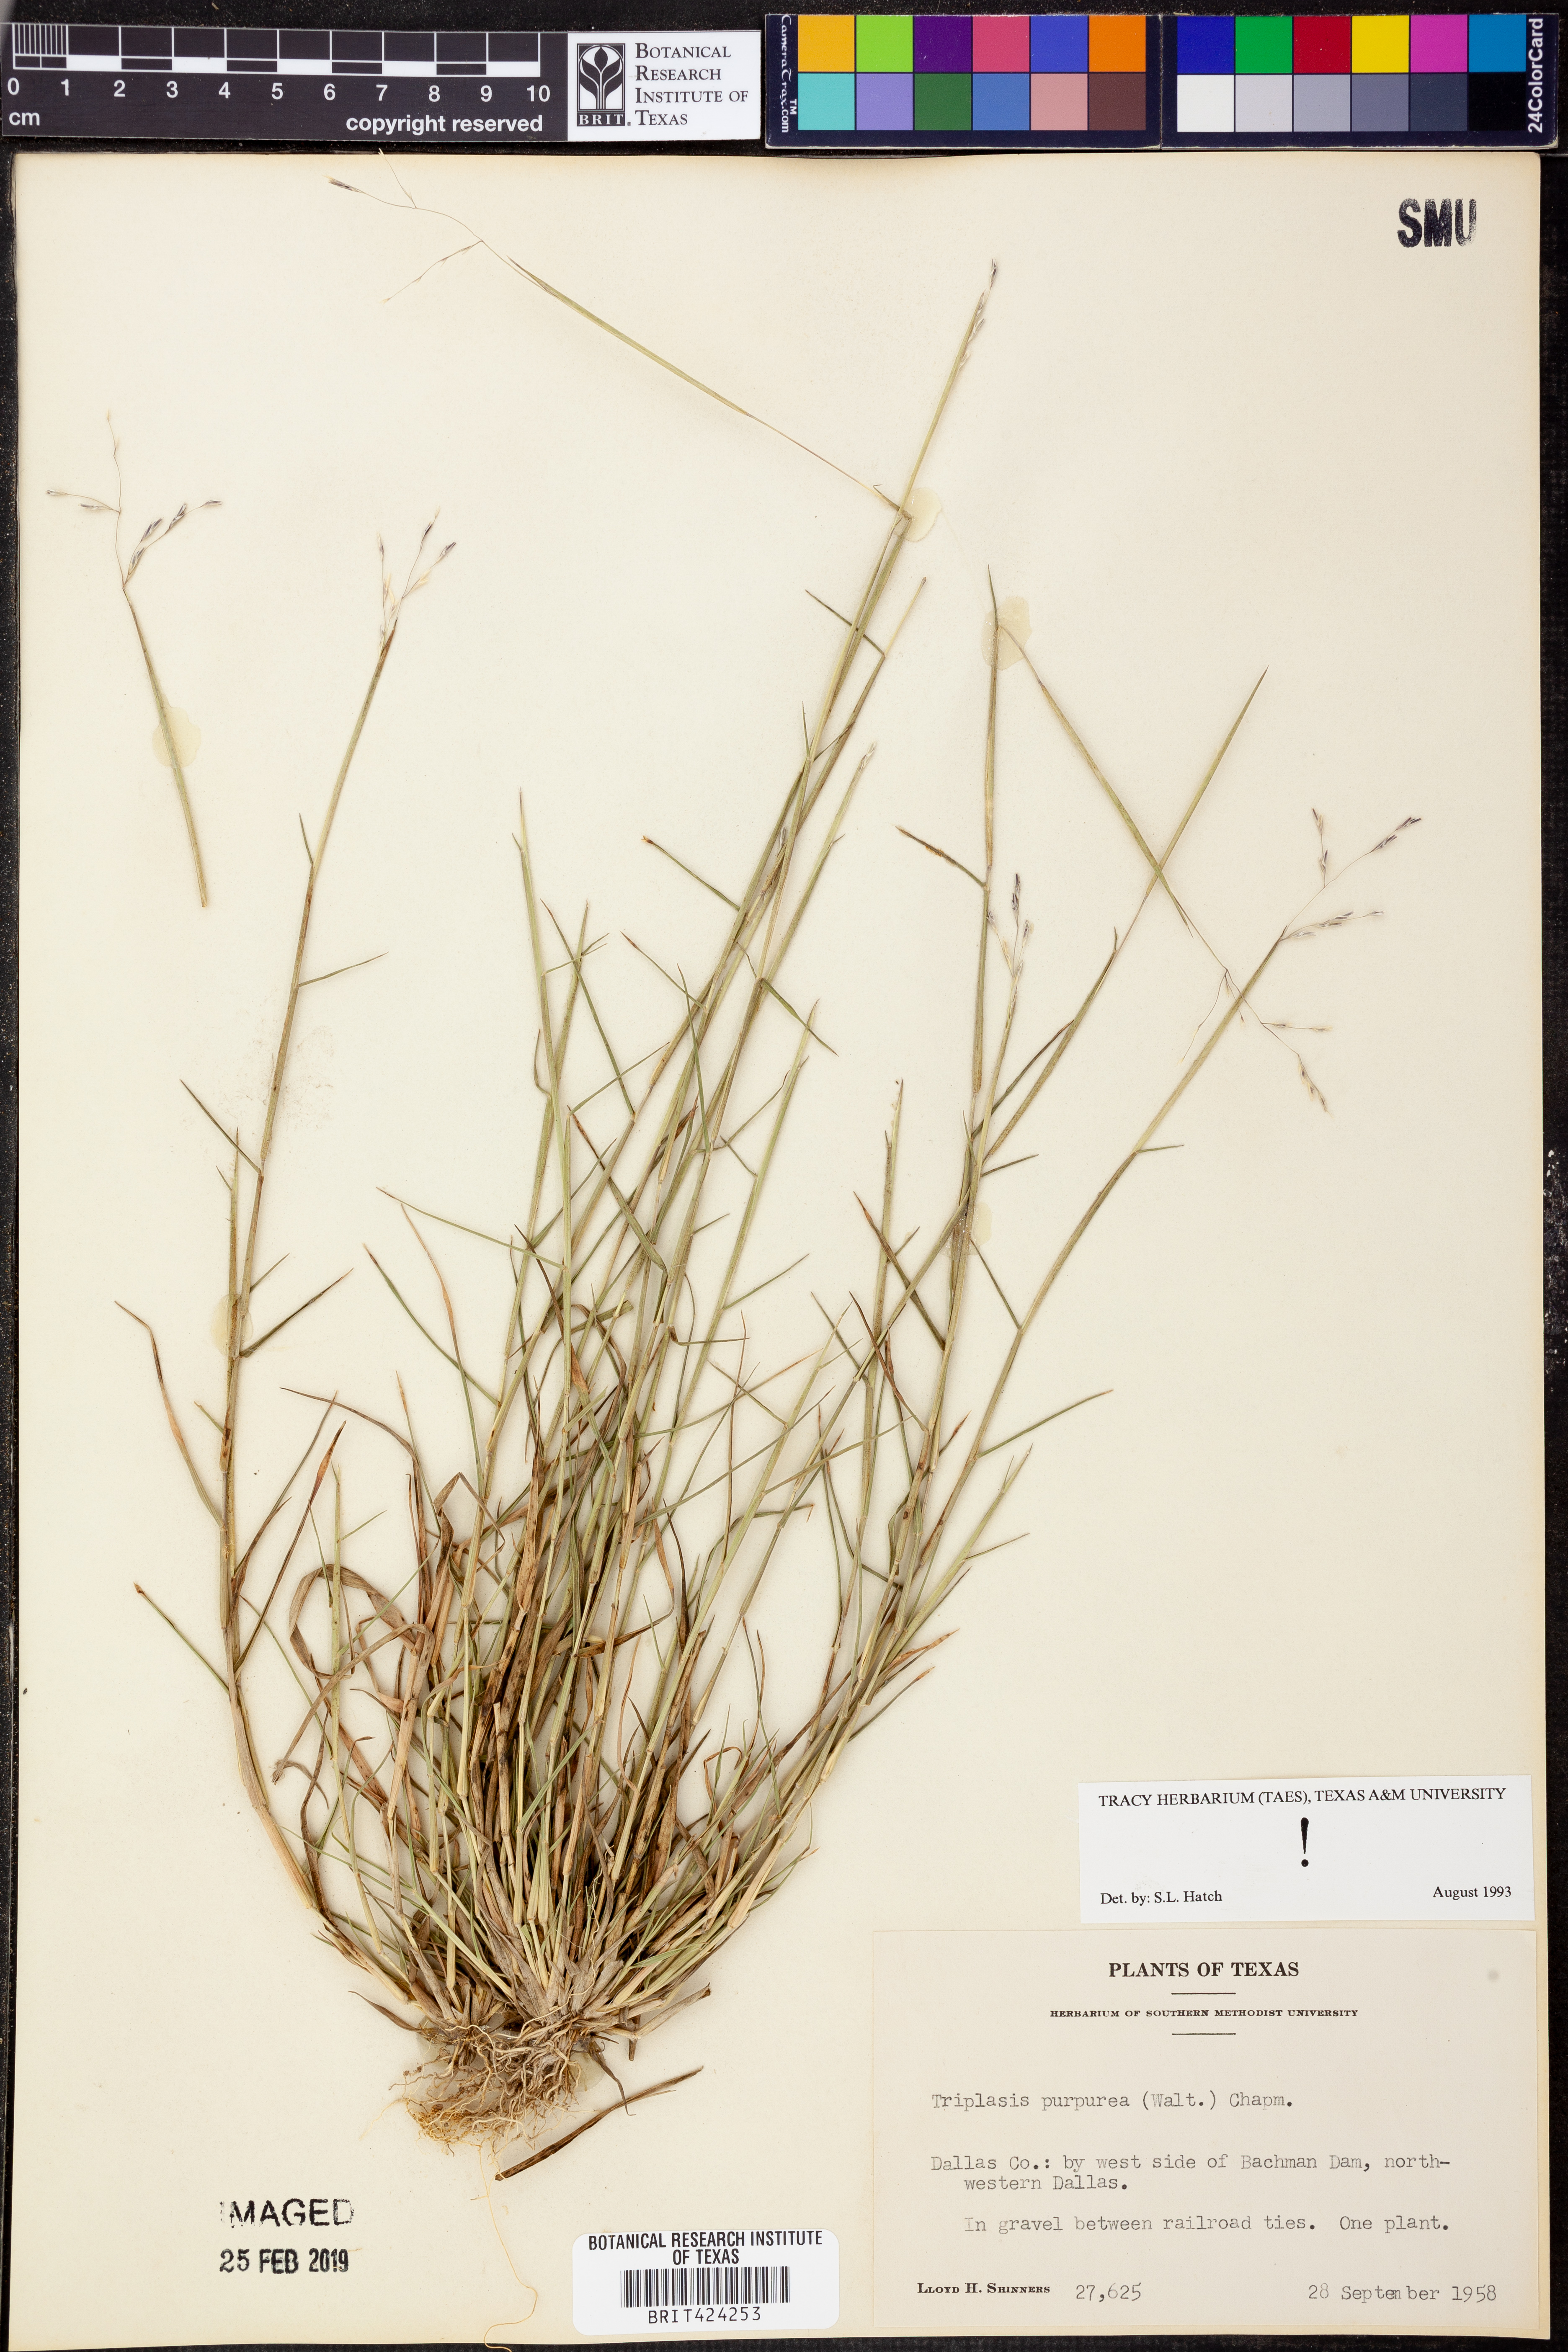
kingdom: Plantae
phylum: Tracheophyta
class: Liliopsida
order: Poales
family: Poaceae
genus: Triplasis
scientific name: Triplasis purpurea
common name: Purple sand grass
